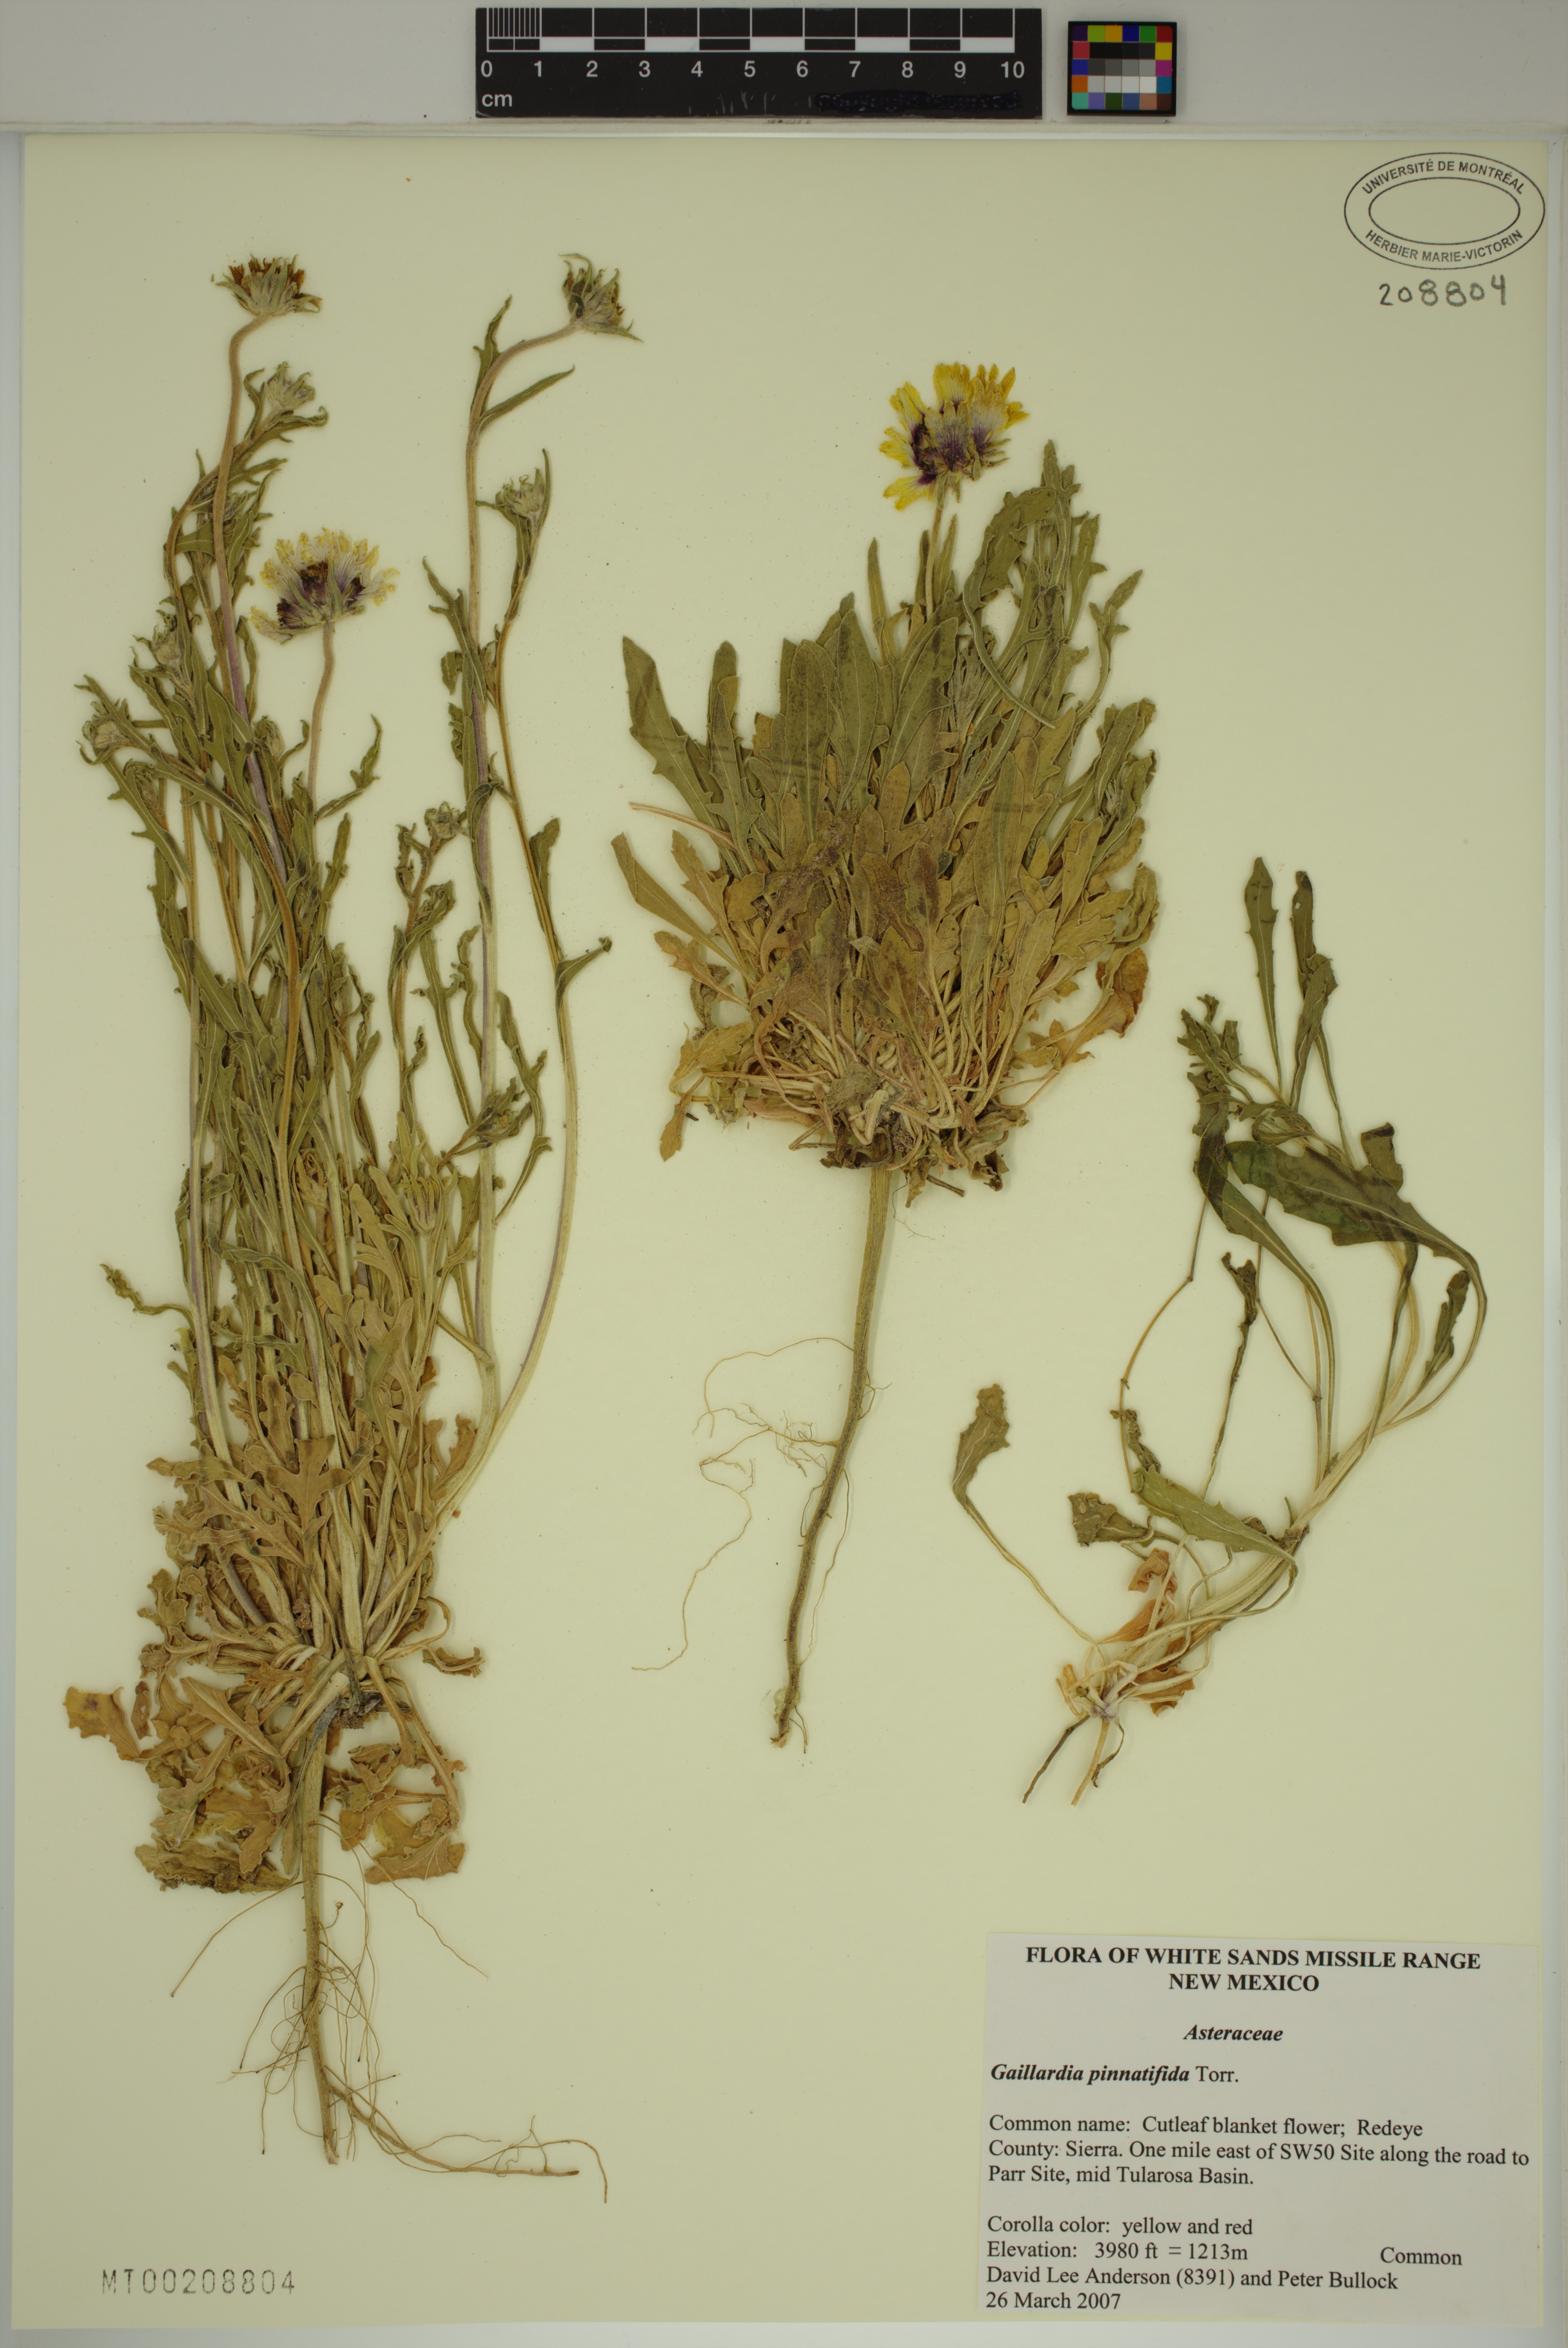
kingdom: Plantae
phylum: Tracheophyta
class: Magnoliopsida
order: Asterales
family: Asteraceae
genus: Gaillardia
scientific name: Gaillardia pinnatifida
